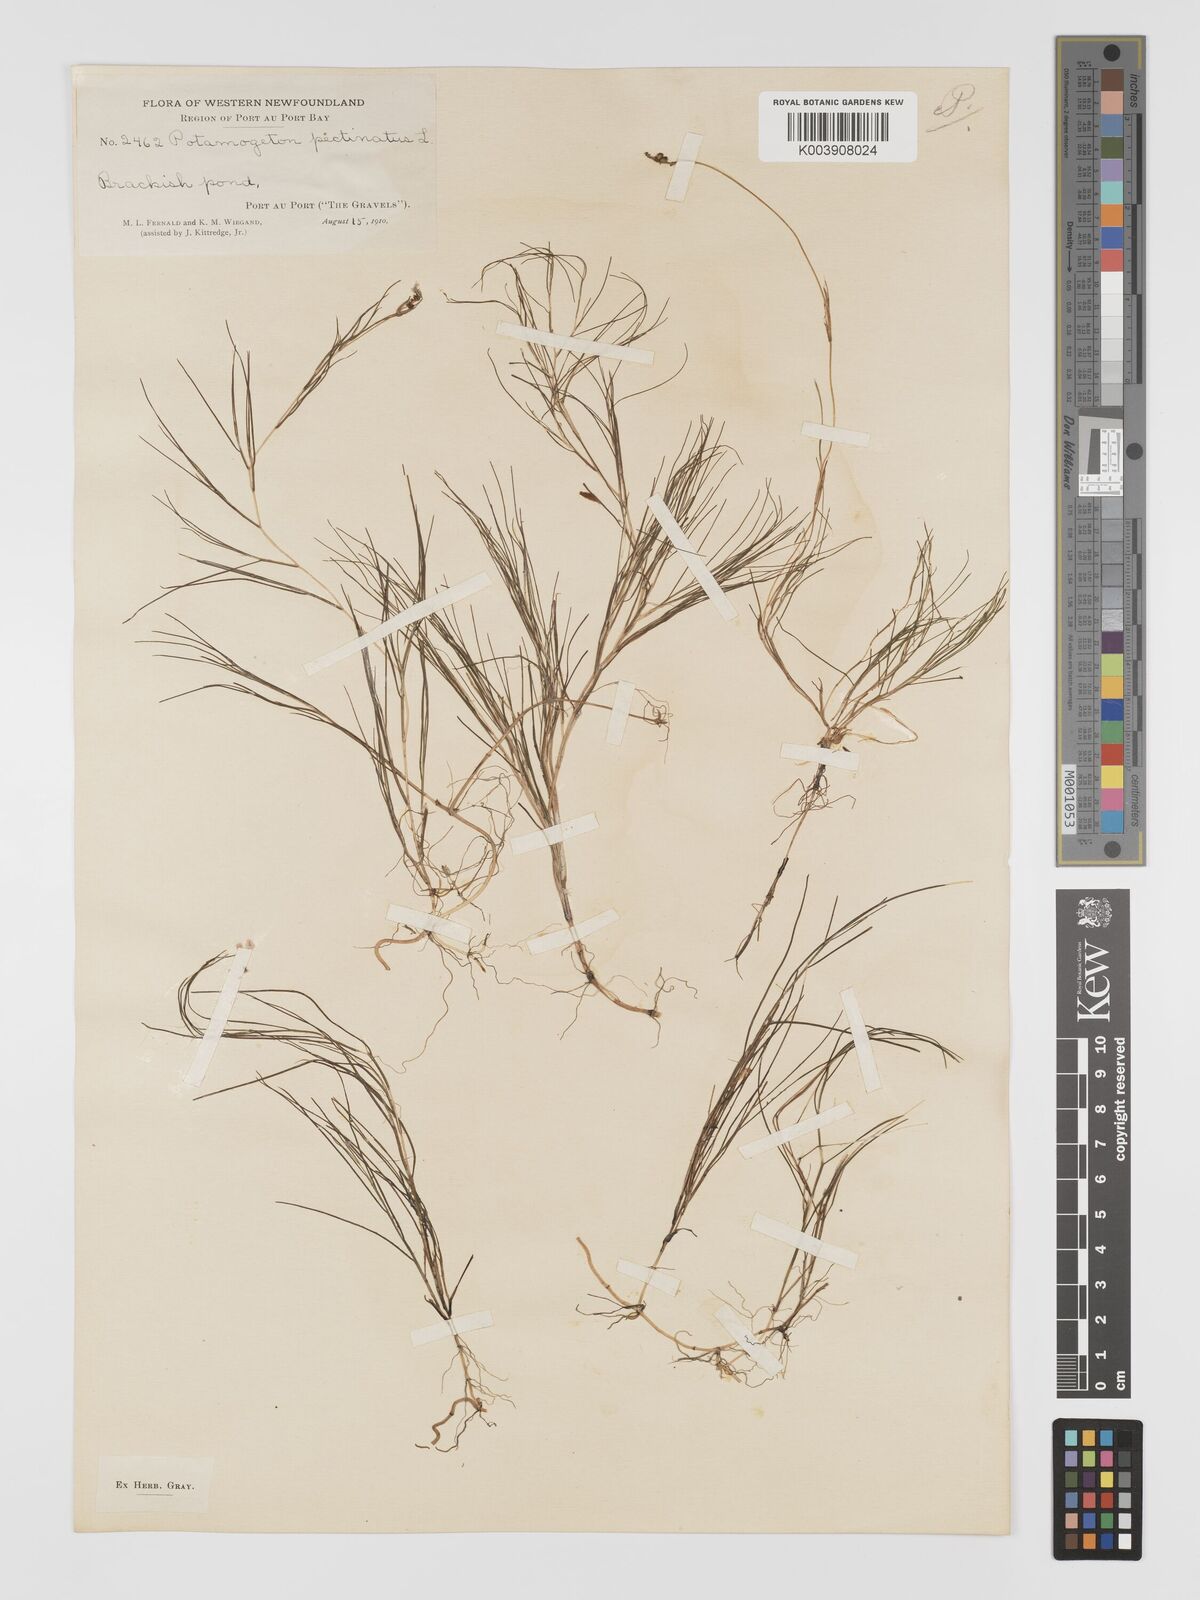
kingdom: Plantae
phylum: Tracheophyta
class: Liliopsida
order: Alismatales
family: Potamogetonaceae
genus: Stuckenia
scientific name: Stuckenia pectinata
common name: Sago pondweed
